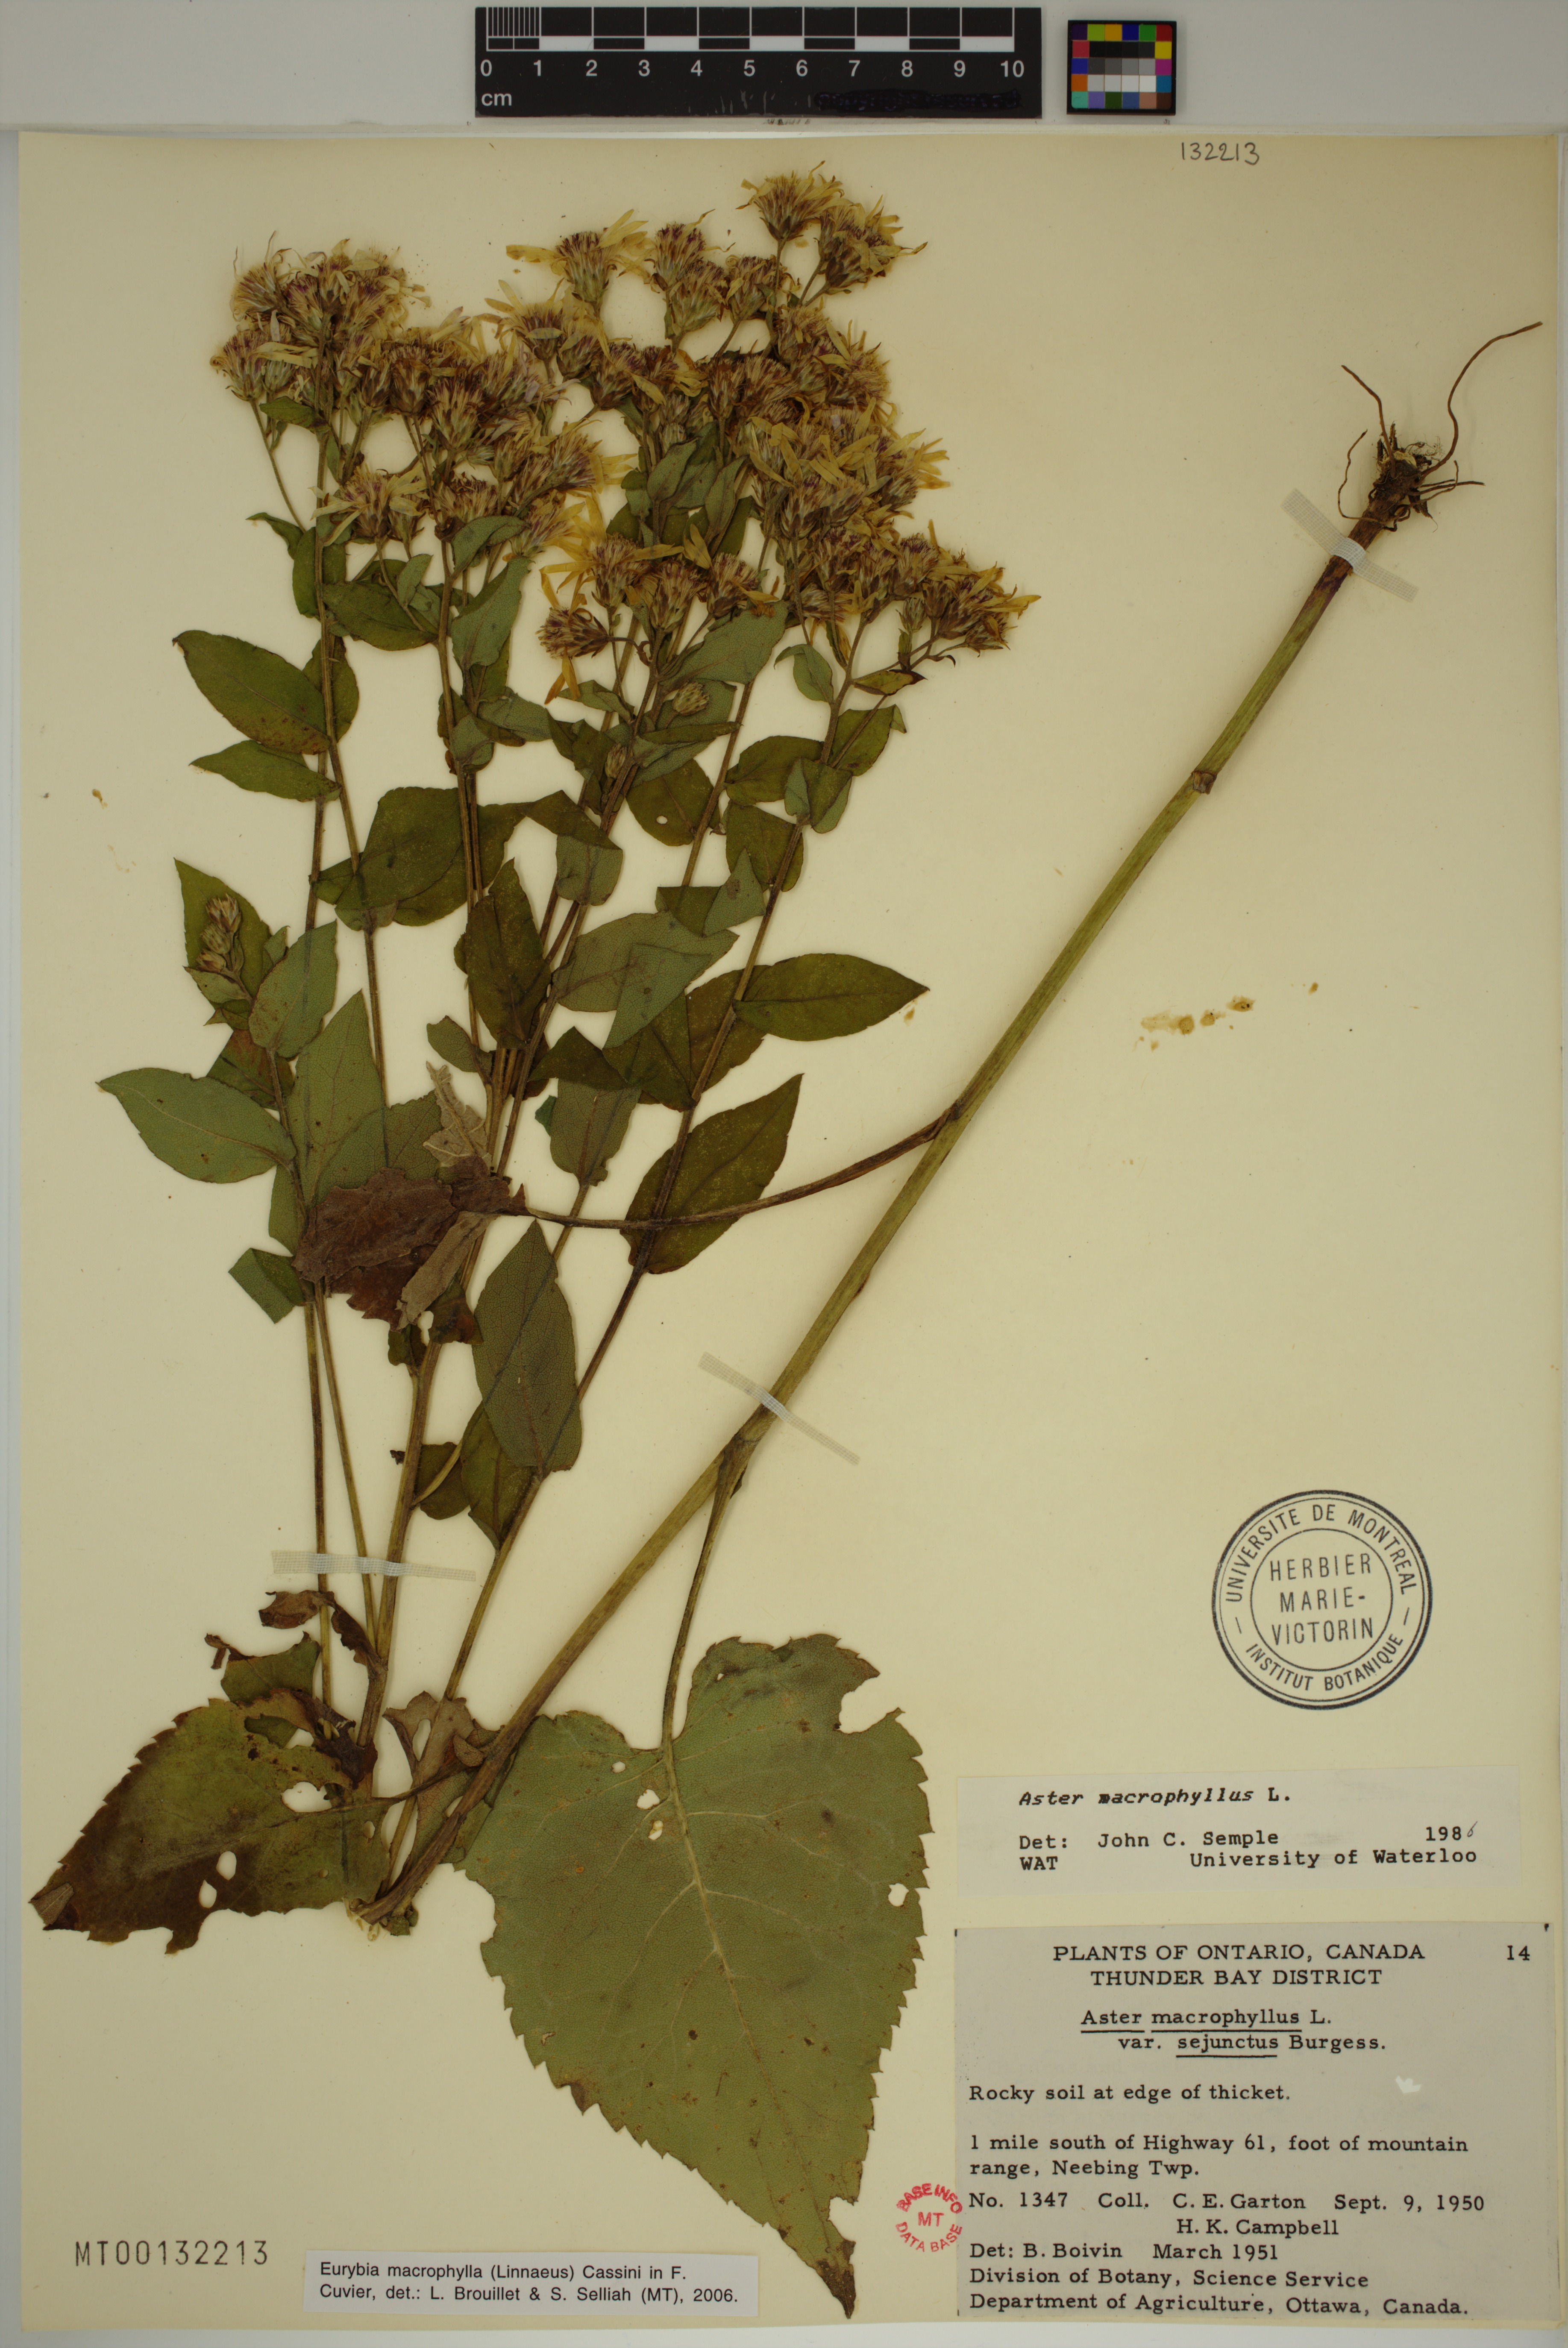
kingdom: Plantae
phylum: Tracheophyta
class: Magnoliopsida
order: Asterales
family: Asteraceae
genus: Eurybia
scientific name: Eurybia macrophylla
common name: Big-leaved aster
